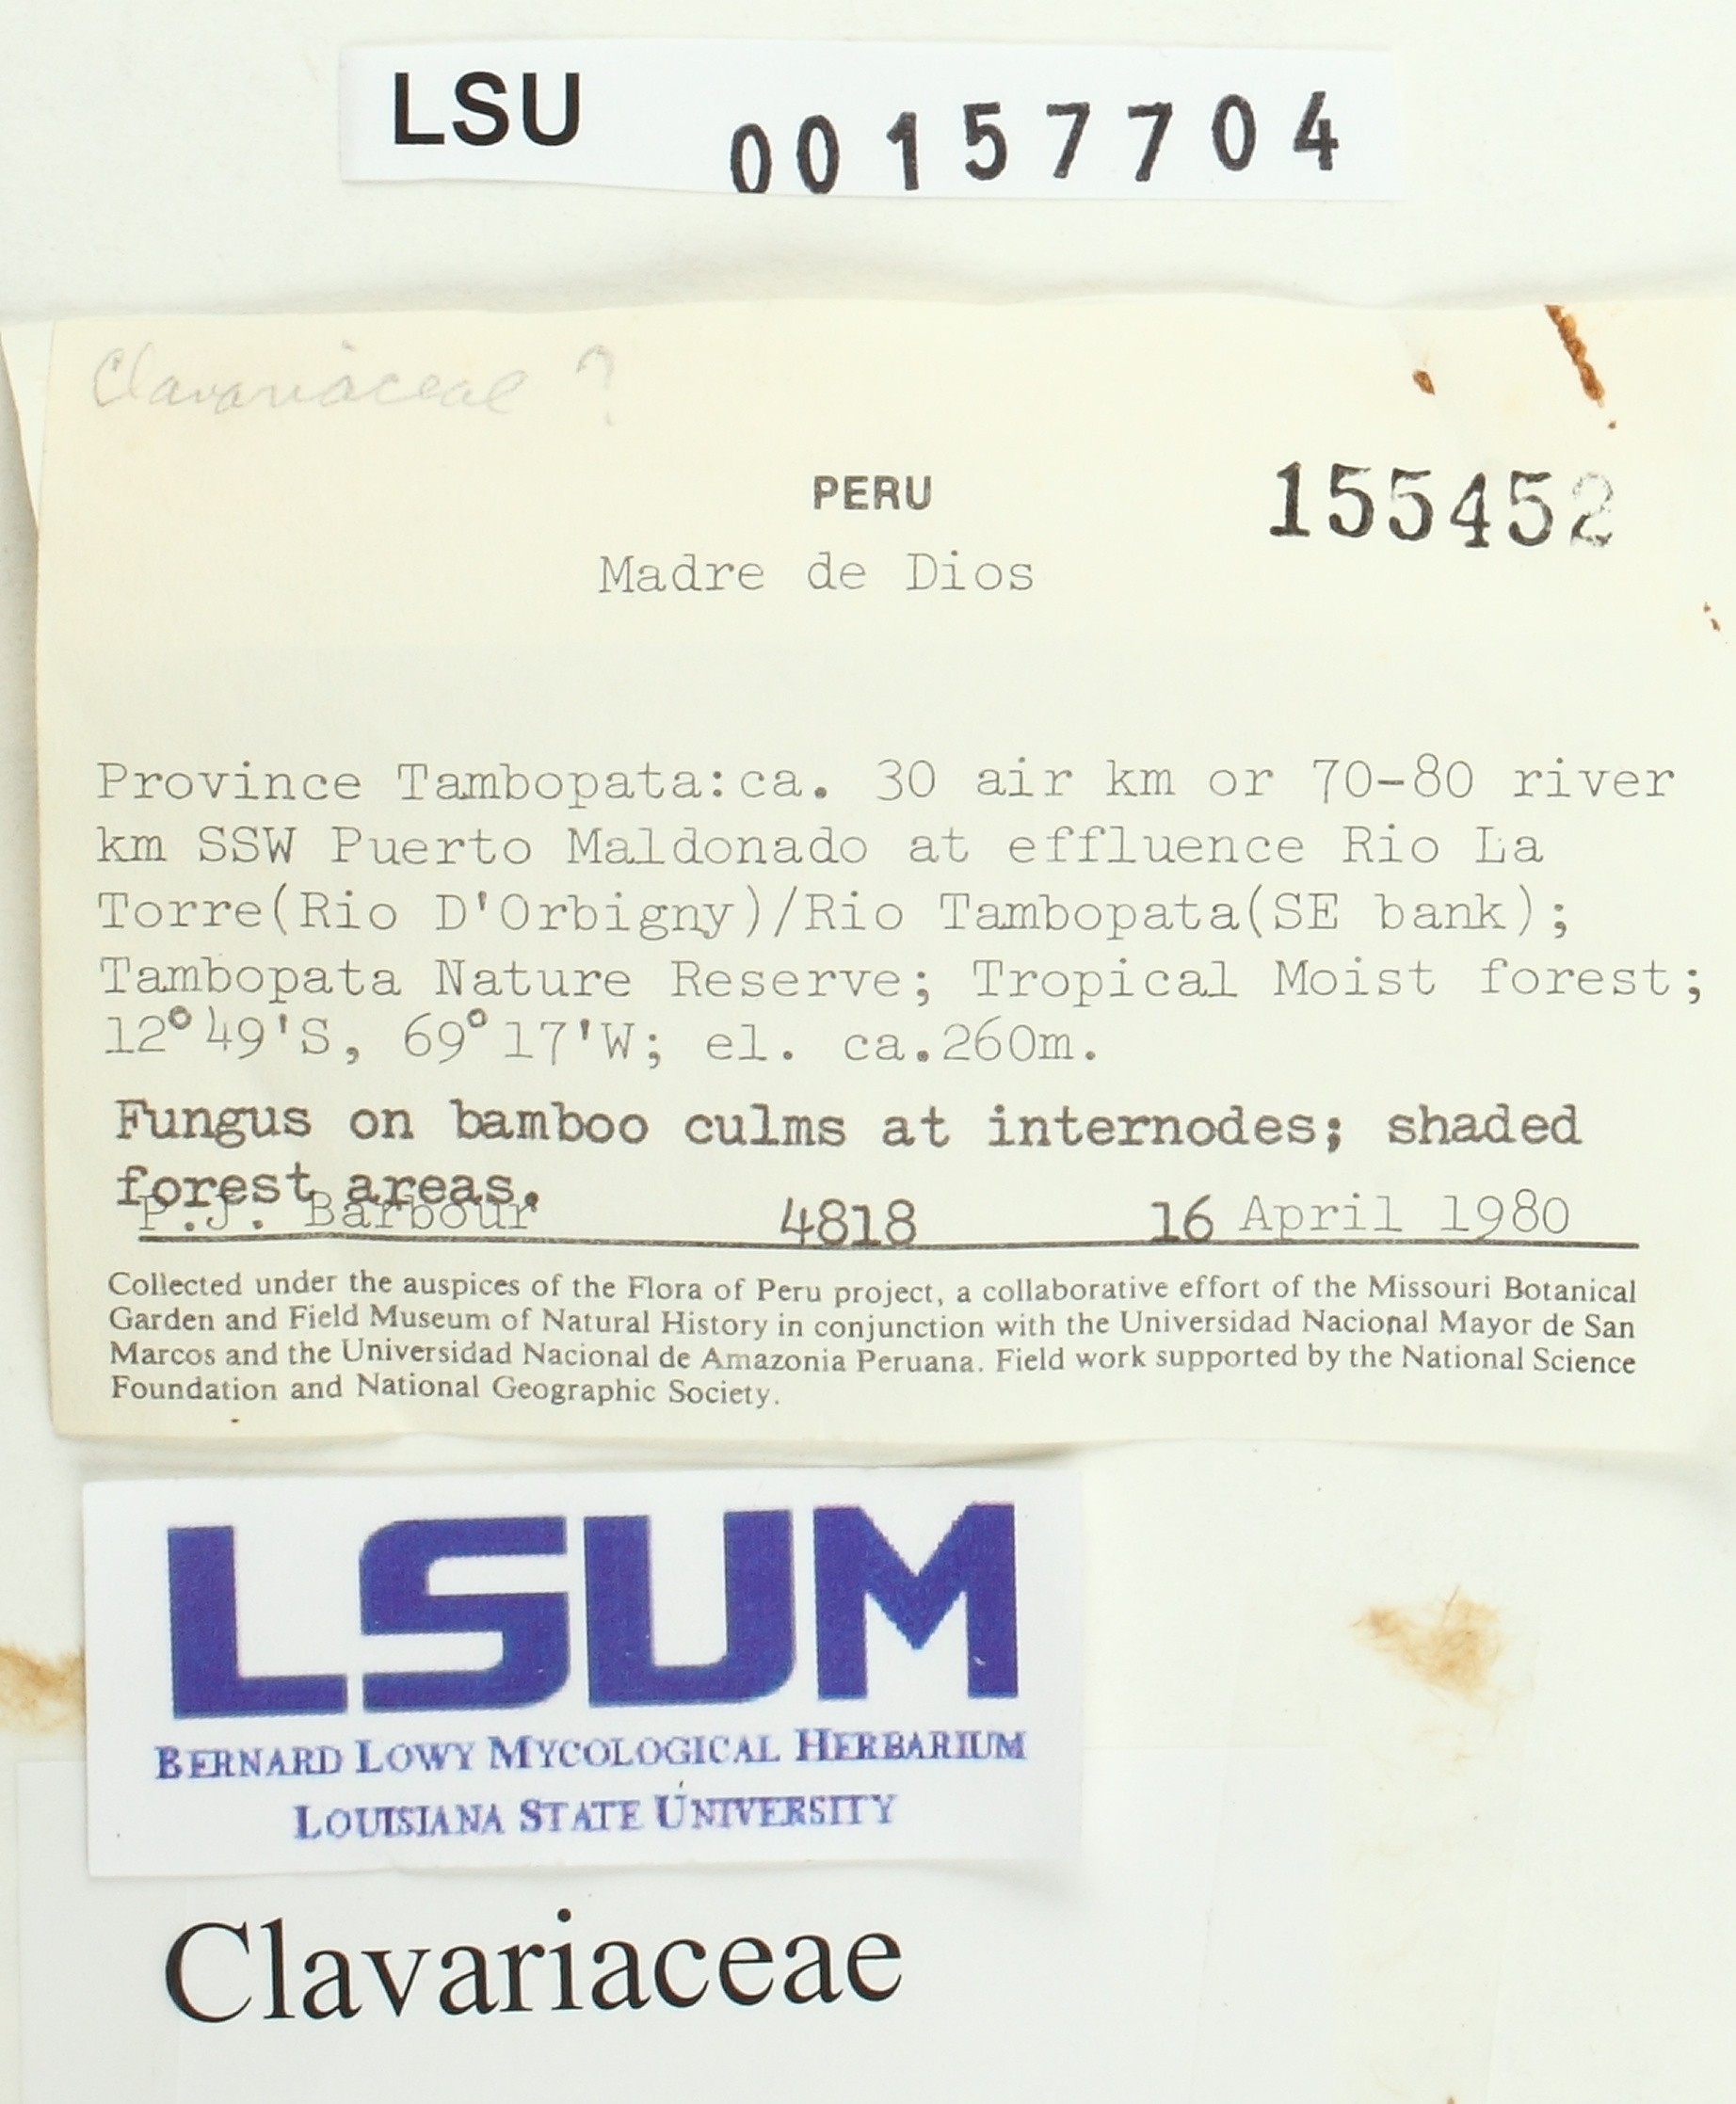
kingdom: Fungi
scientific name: Fungi
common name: Fungi
